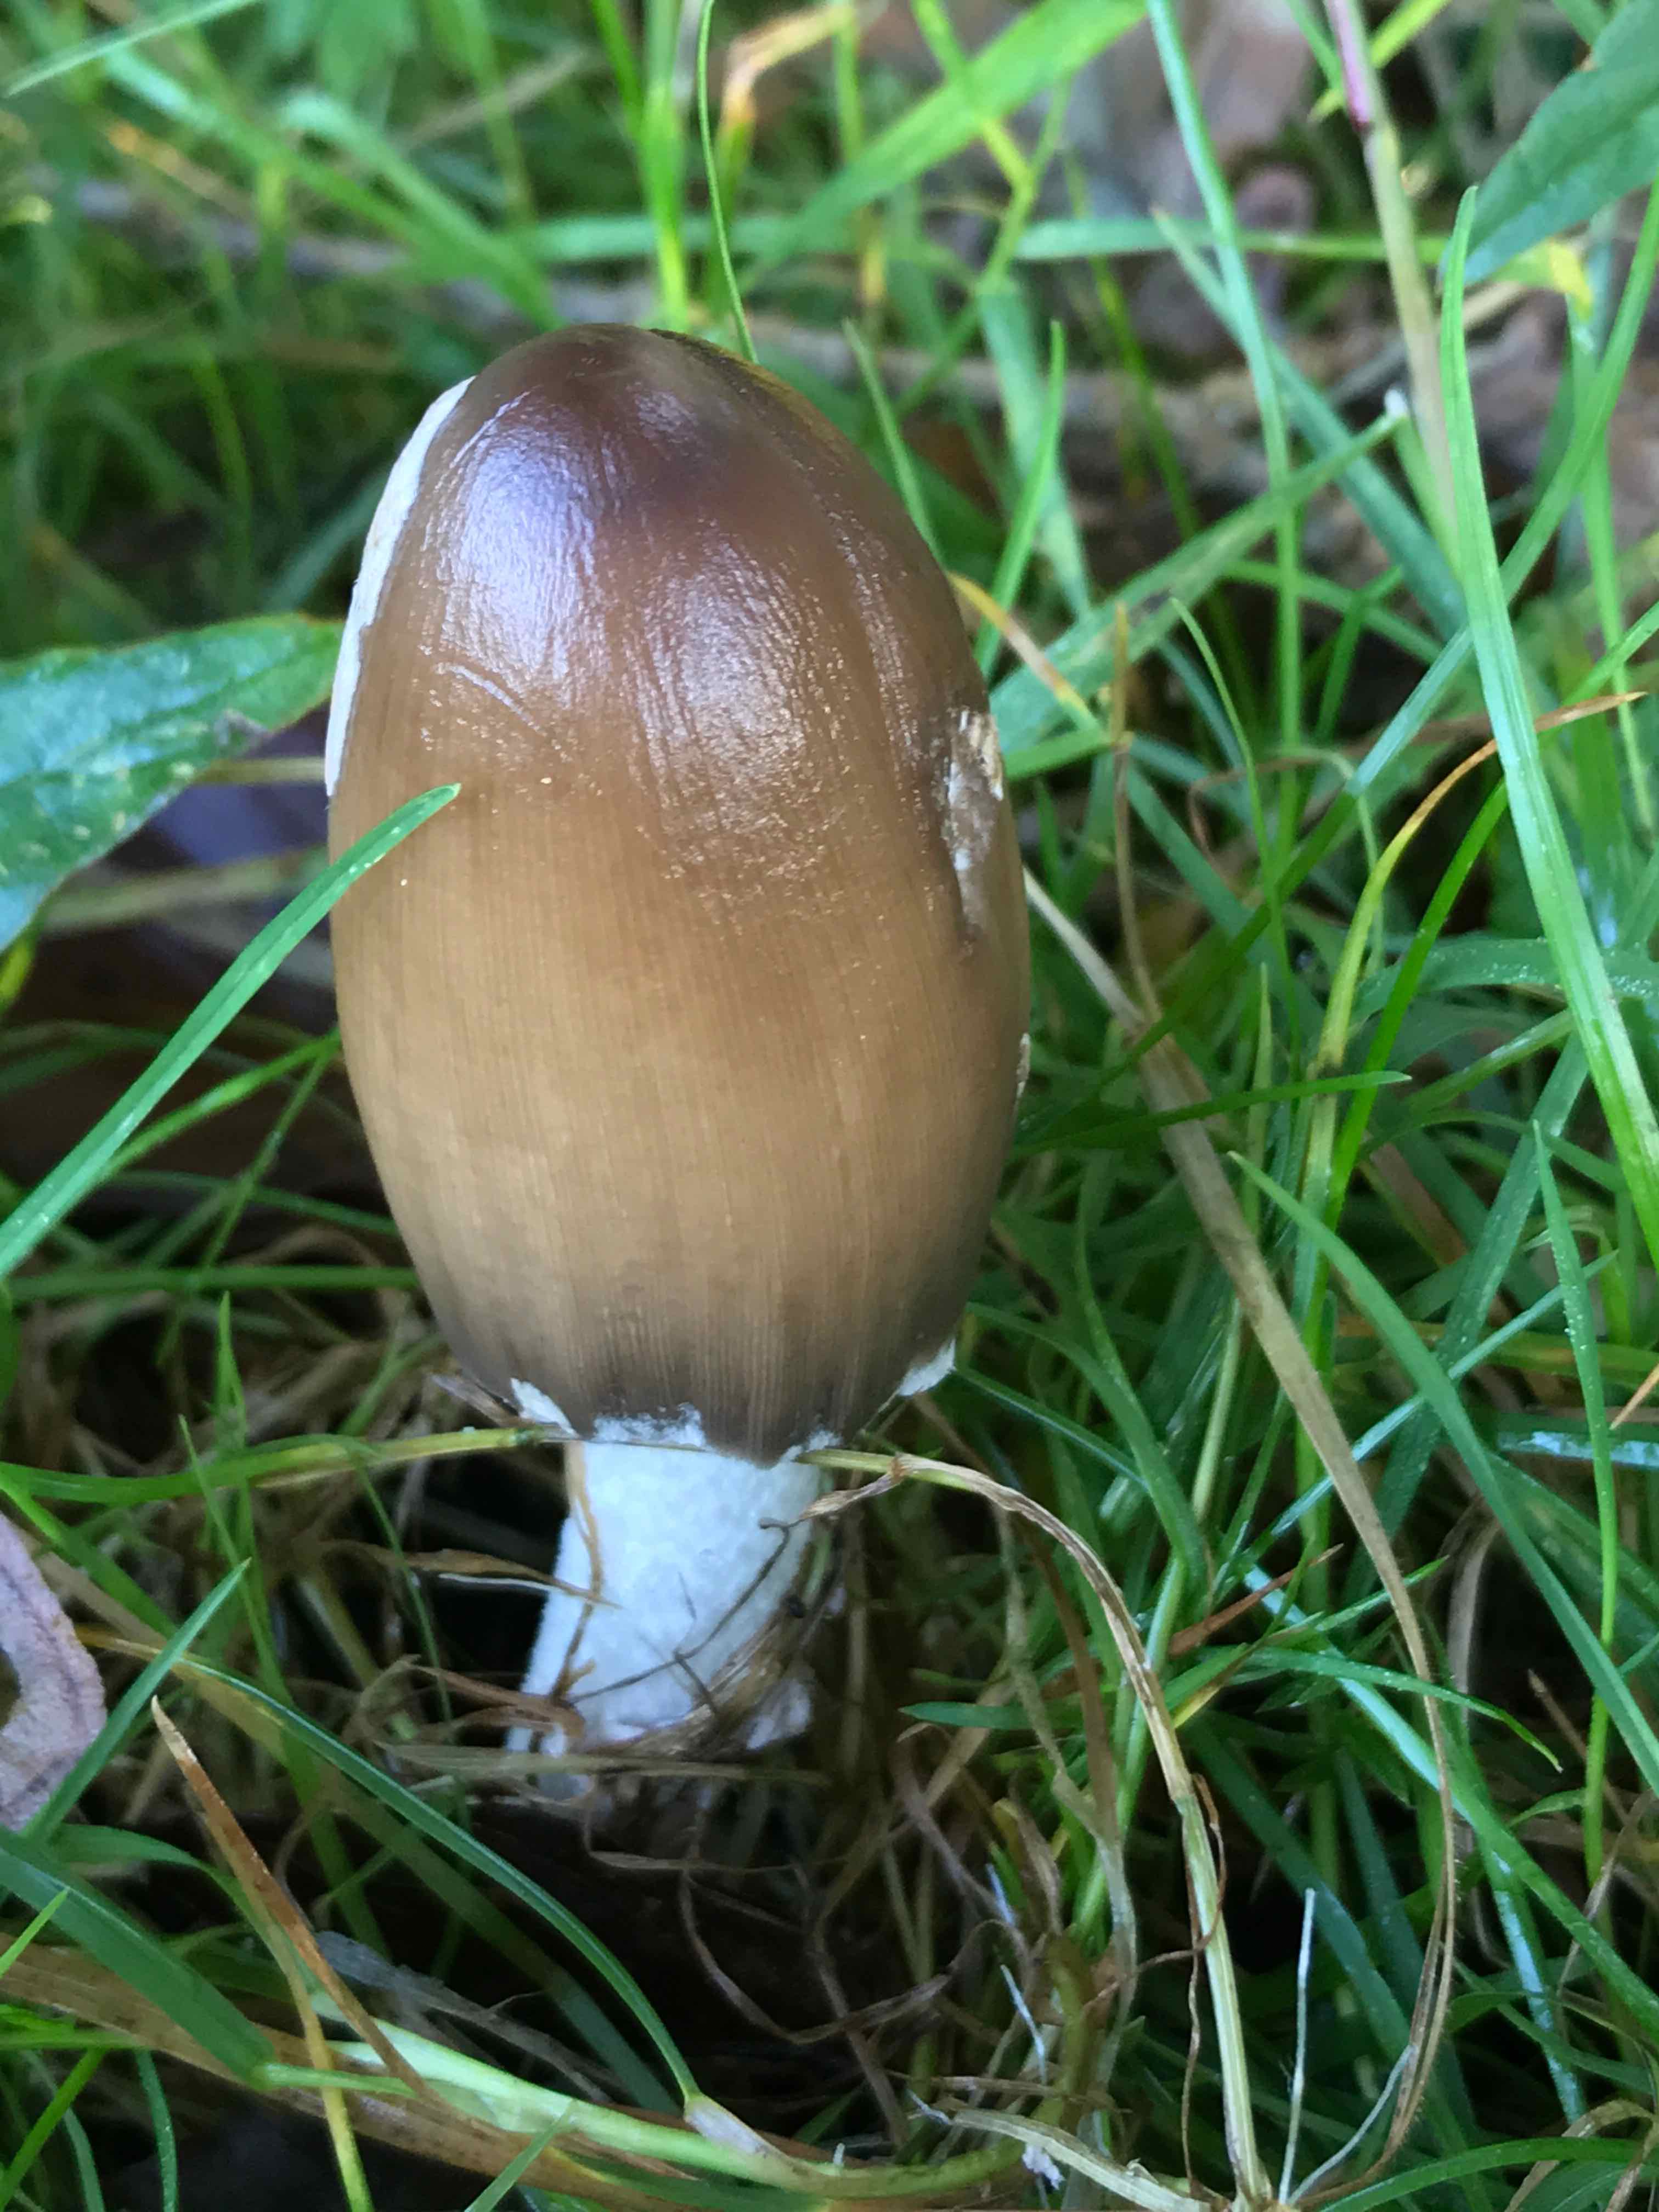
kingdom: Fungi
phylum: Basidiomycota
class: Agaricomycetes
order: Agaricales
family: Psathyrellaceae
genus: Coprinopsis
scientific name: Coprinopsis picacea
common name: skade-blækhat
